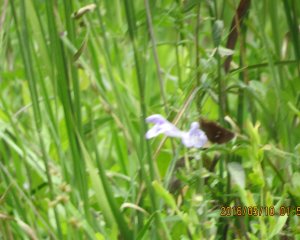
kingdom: Animalia
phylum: Arthropoda
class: Insecta
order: Lepidoptera
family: Hesperiidae
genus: Oligoria
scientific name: Oligoria maculata
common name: Twin-spot Skipper
